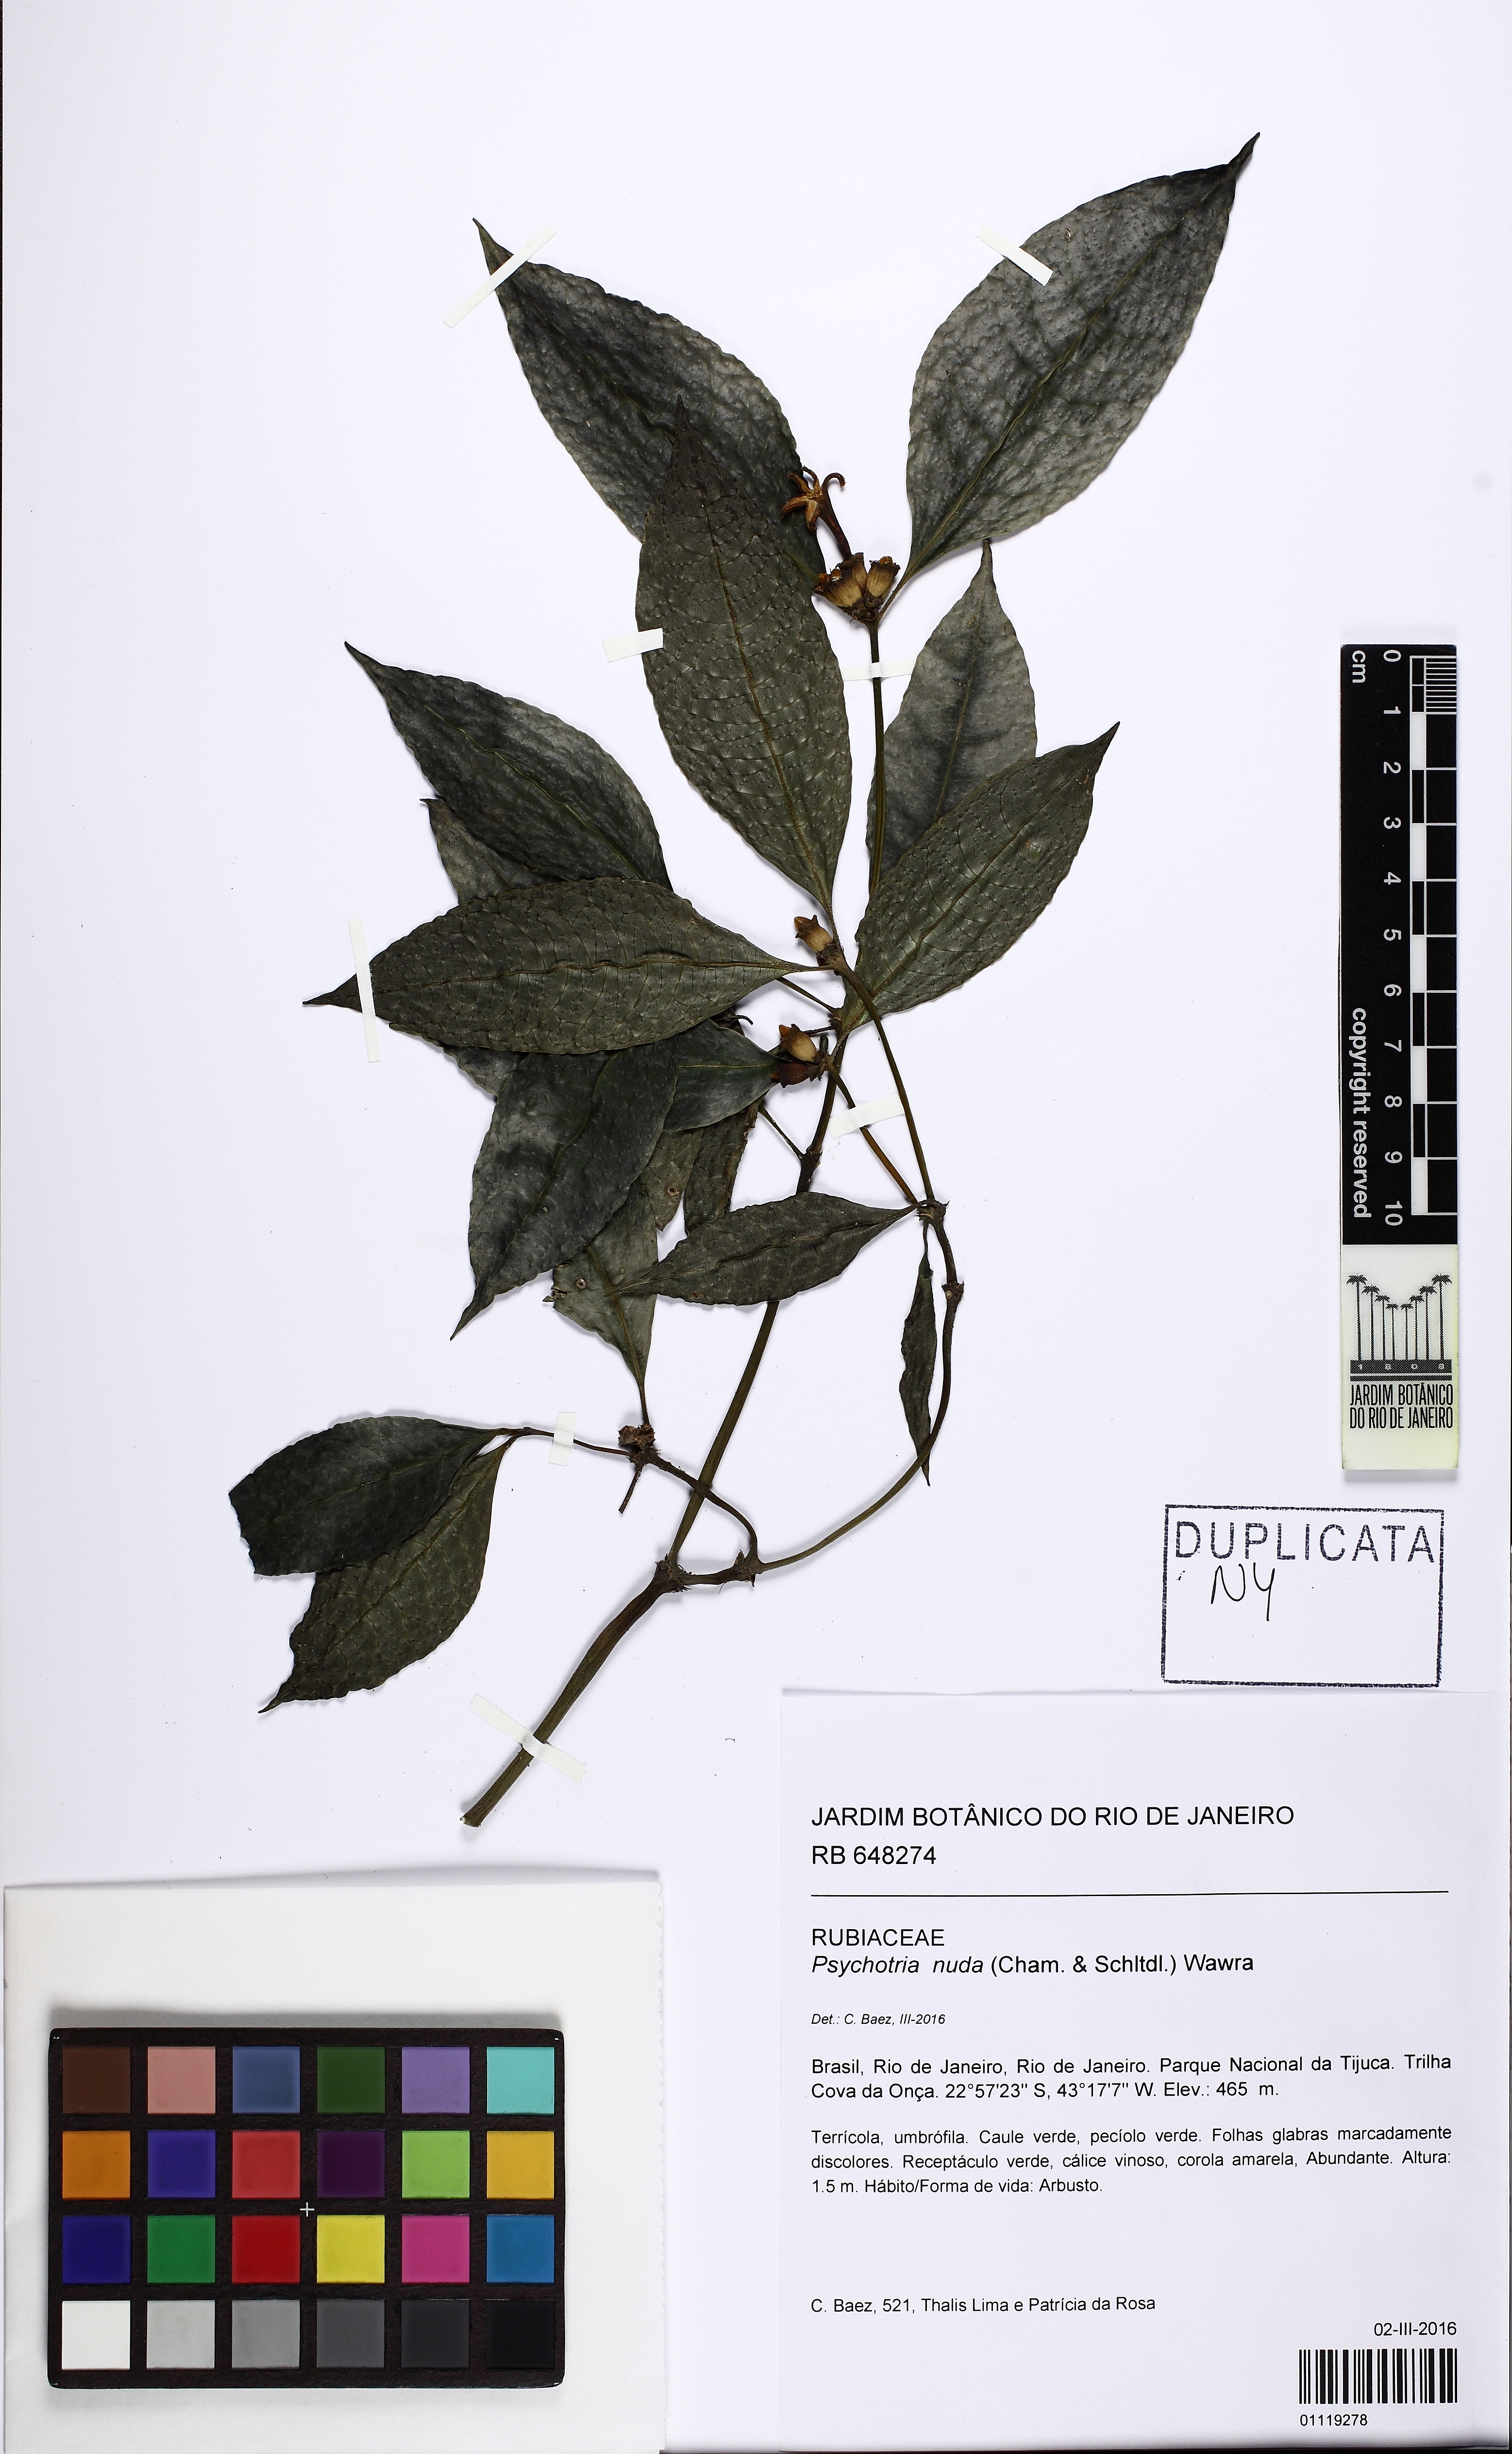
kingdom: Plantae
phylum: Tracheophyta
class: Magnoliopsida
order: Gentianales
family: Rubiaceae
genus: Psychotria
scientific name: Psychotria nuda
